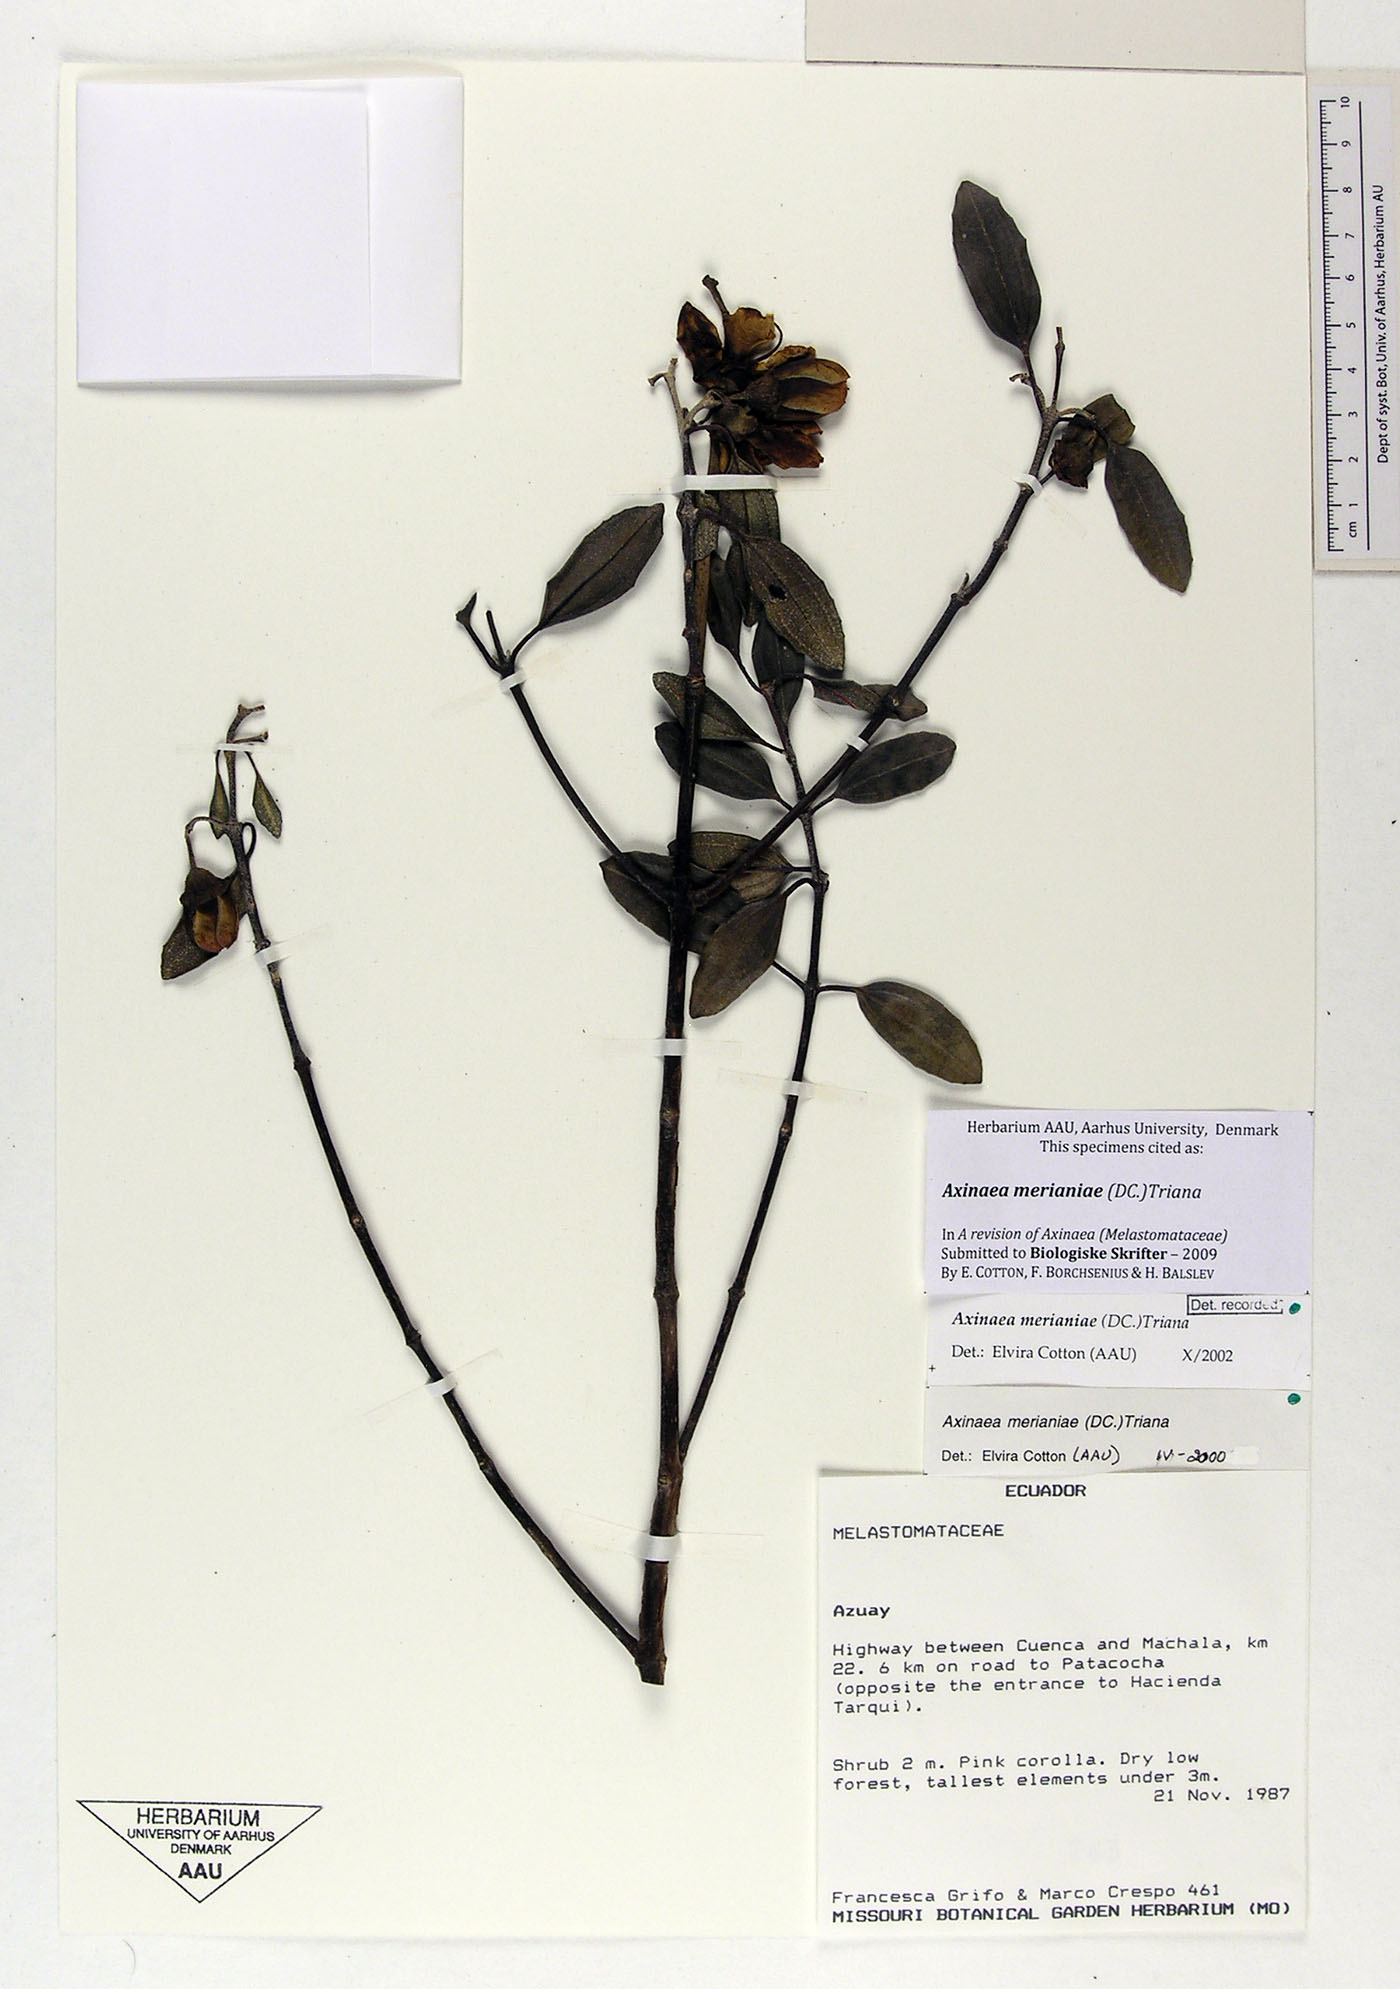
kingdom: Plantae
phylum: Tracheophyta
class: Magnoliopsida
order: Myrtales
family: Melastomataceae
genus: Axinaea
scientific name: Axinaea merianiae
